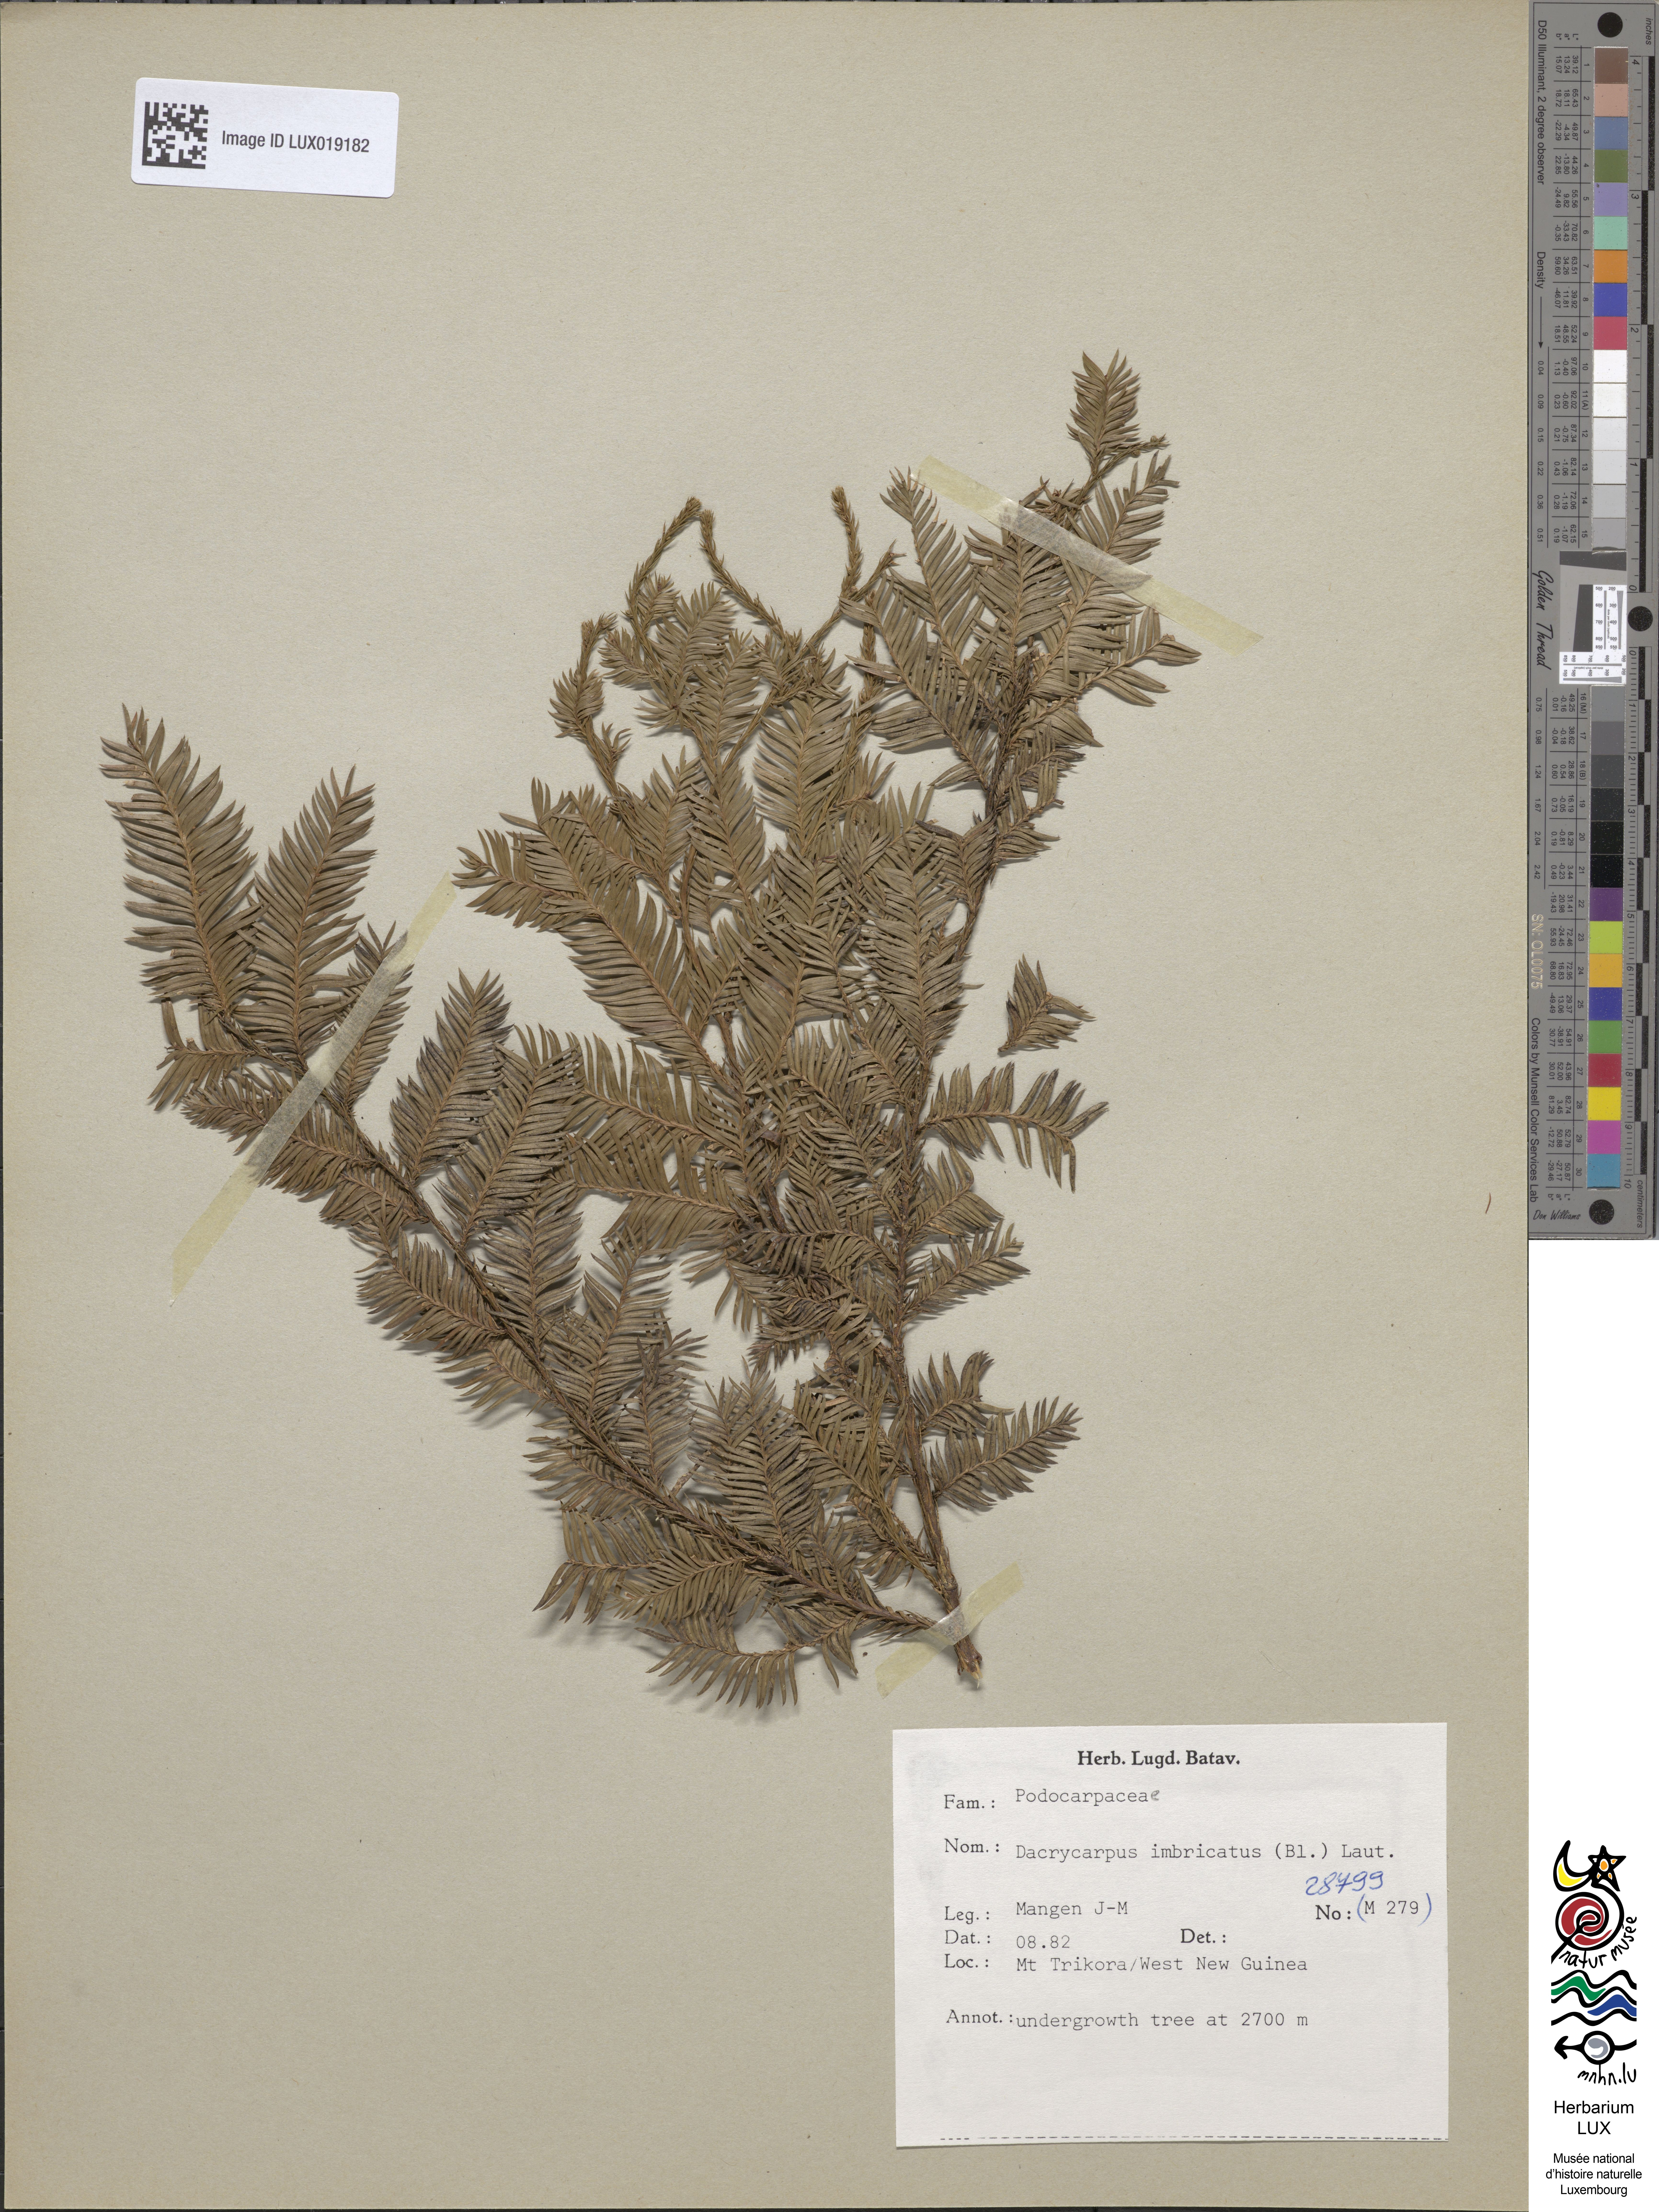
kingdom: Plantae
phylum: Tracheophyta
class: Pinopsida
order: Pinales
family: Podocarpaceae
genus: Dacrycarpus
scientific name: Dacrycarpus imbricatus
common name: Pine
